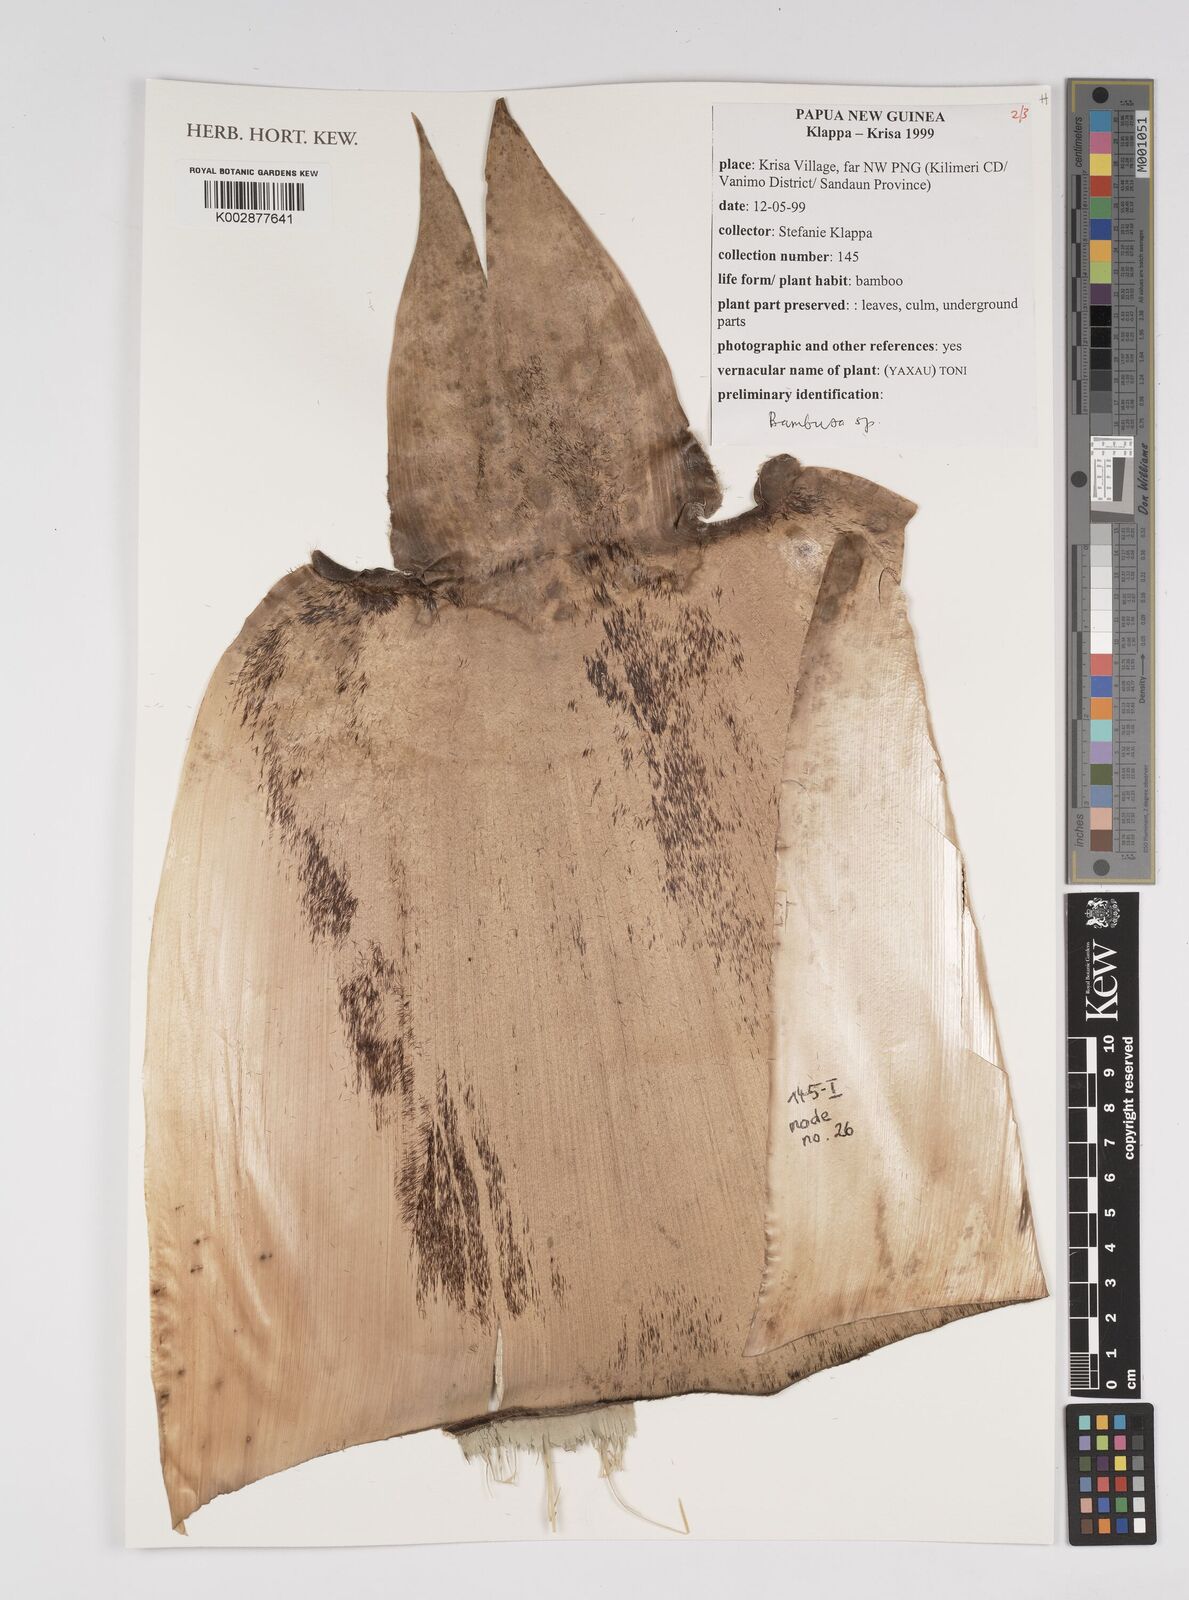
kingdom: Plantae
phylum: Tracheophyta
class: Liliopsida
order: Poales
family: Poaceae
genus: Bambusa
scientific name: Bambusa
